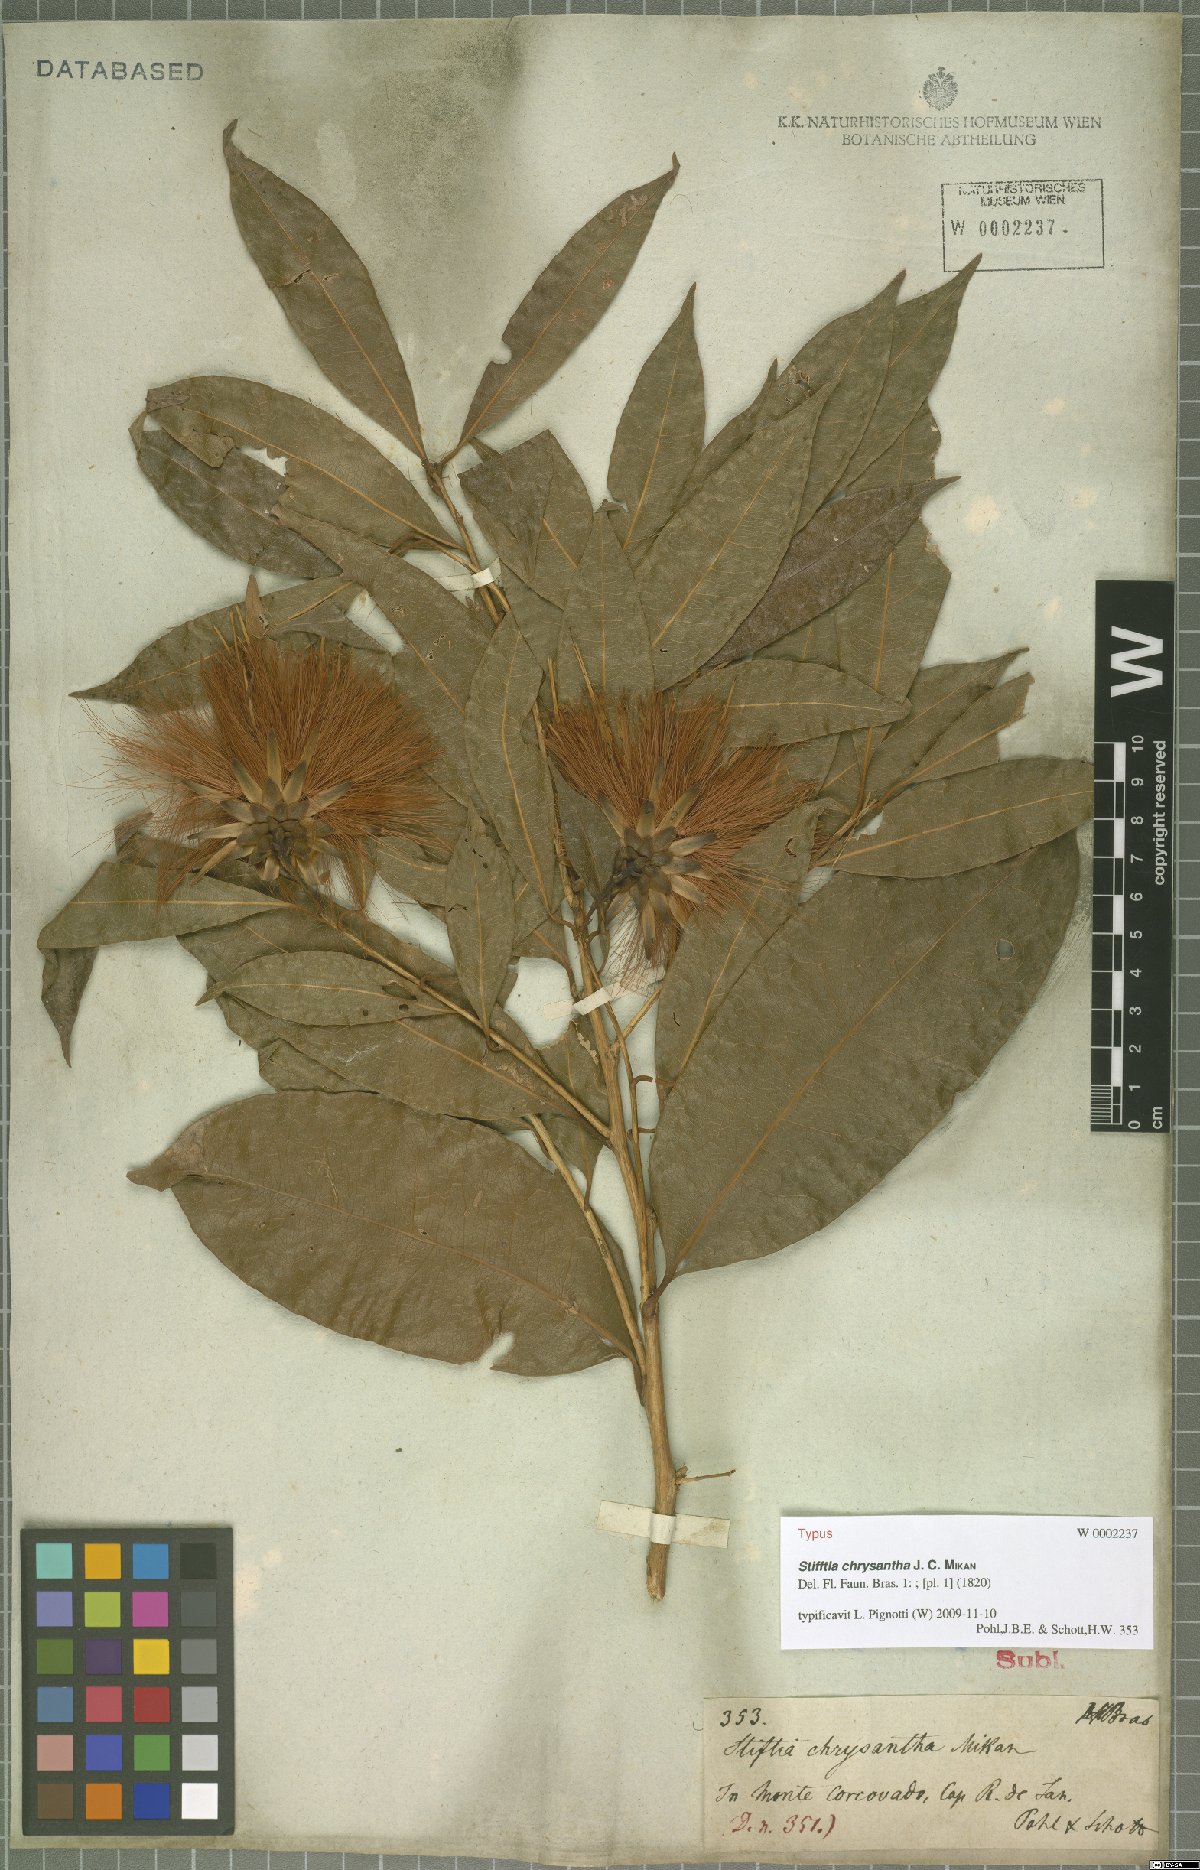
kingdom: Plantae
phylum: Tracheophyta
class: Magnoliopsida
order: Asterales
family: Asteraceae
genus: Stifftia
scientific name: Stifftia chrysantha
